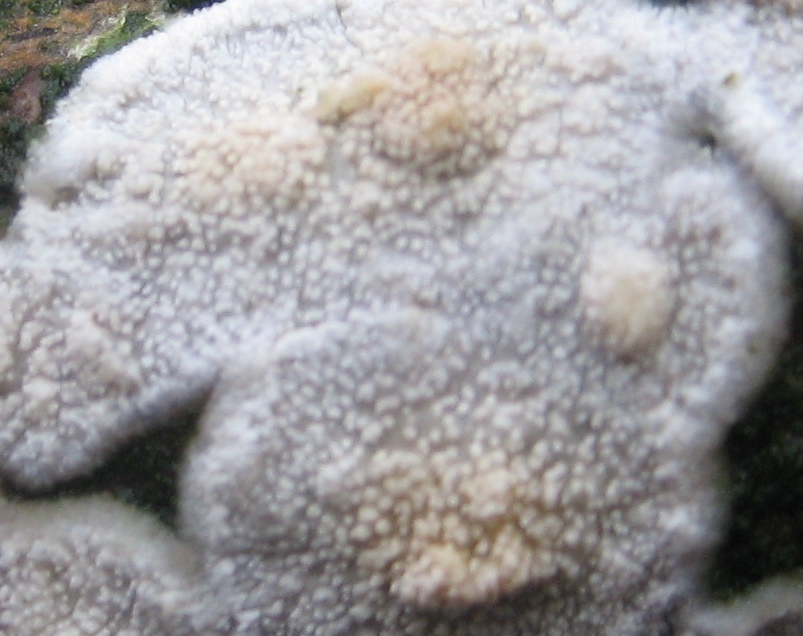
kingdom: Fungi
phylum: Basidiomycota
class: Agaricomycetes
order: Corticiales
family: Corticiaceae
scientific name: Corticiaceae
